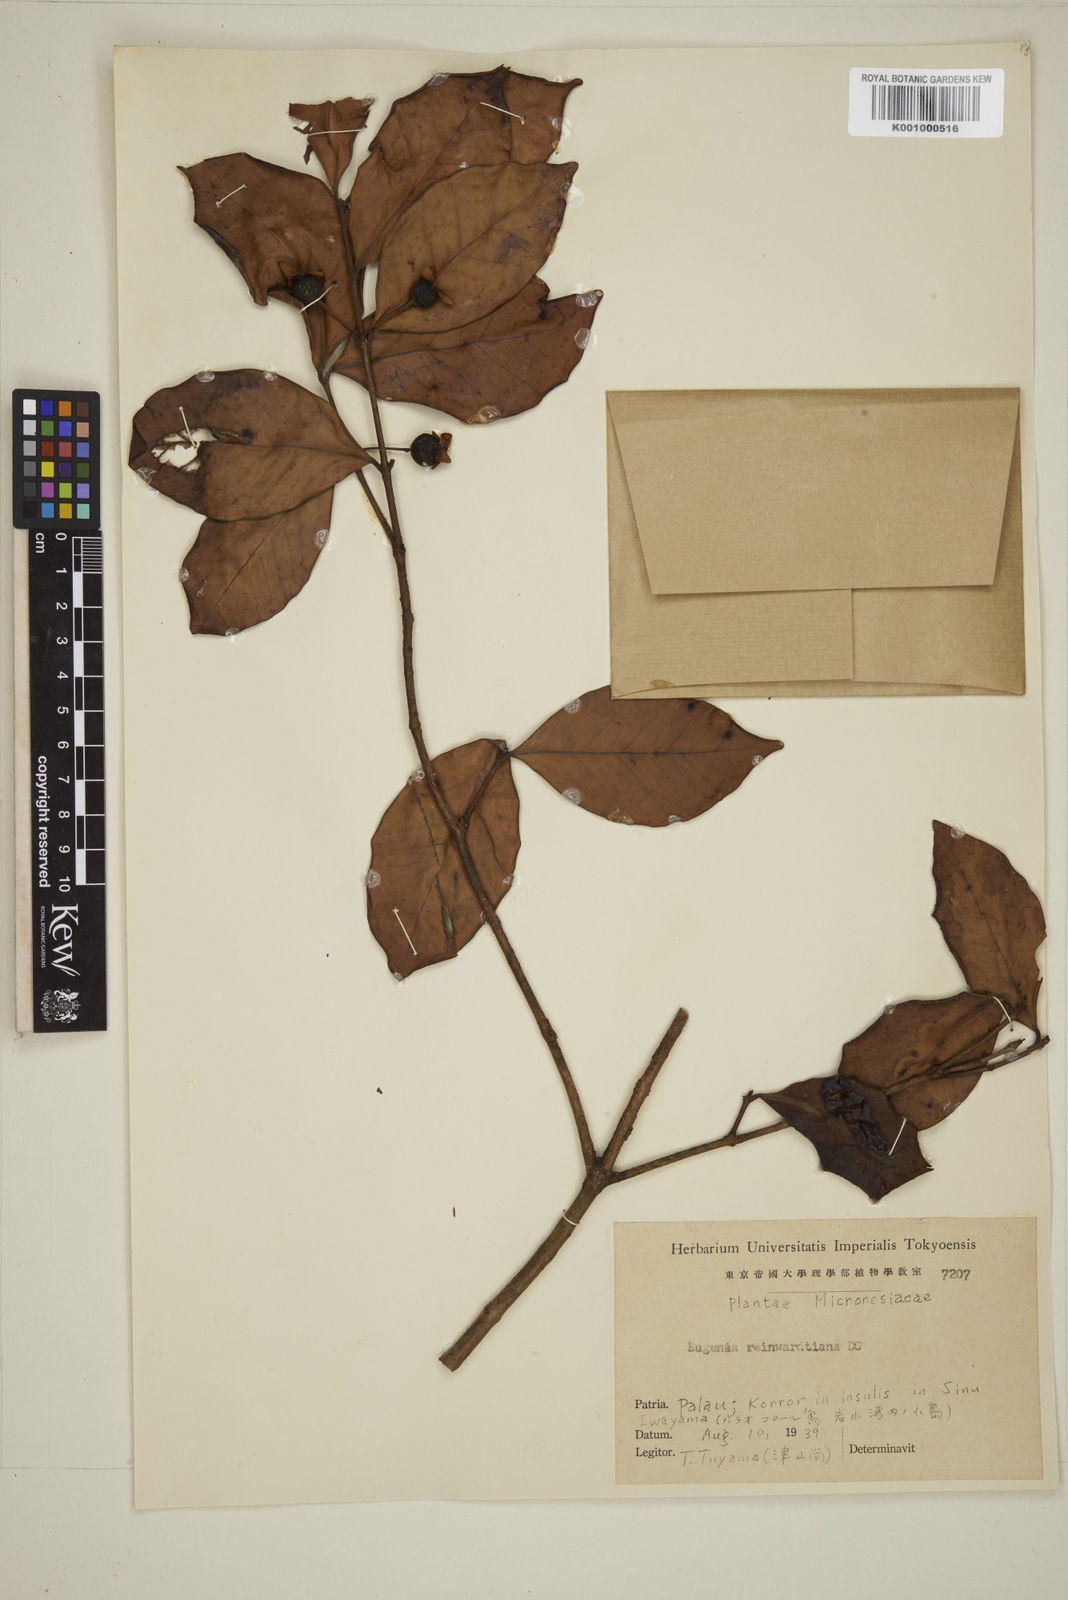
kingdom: Plantae
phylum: Tracheophyta
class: Magnoliopsida
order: Myrtales
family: Myrtaceae
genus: Eugenia
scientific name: Eugenia reinwardtiana
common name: Cedar bay-cherry
